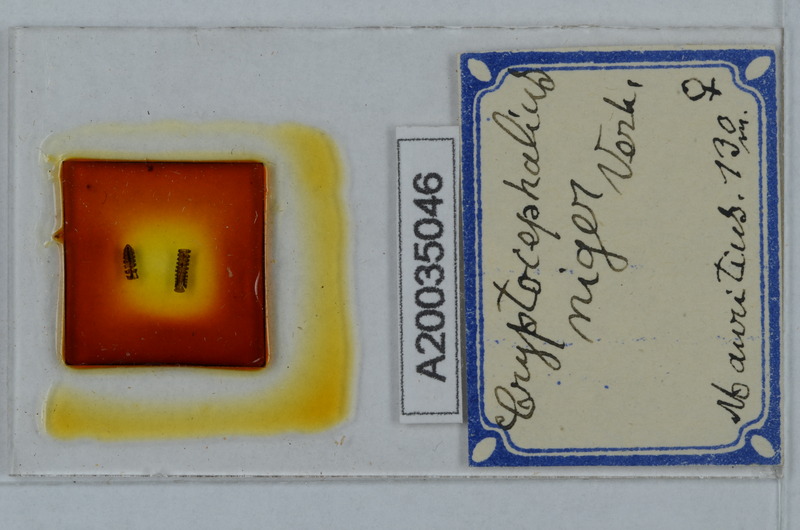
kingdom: Animalia
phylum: Arthropoda
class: Diplopoda
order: Polydesmida
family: Cryptodesmidae
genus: Cryptodesmus
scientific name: Cryptodesmus
